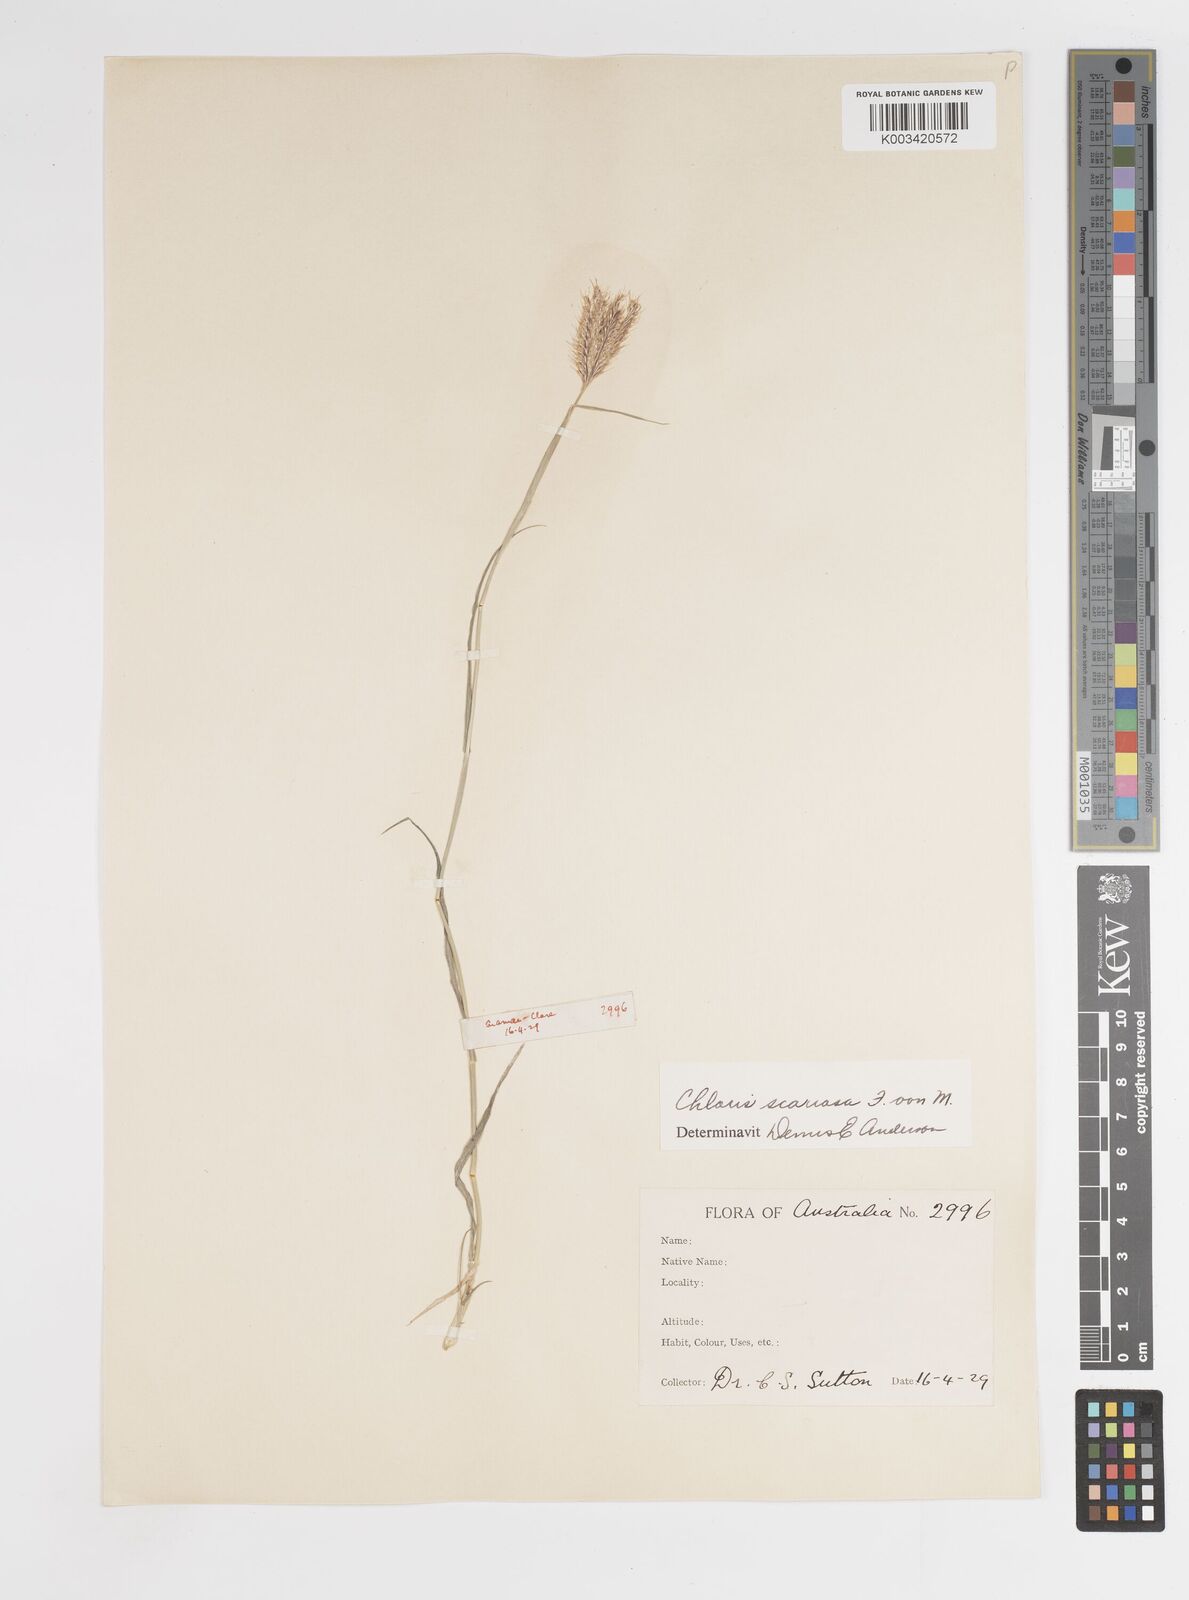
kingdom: Plantae
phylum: Tracheophyta
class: Liliopsida
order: Poales
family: Poaceae
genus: Oxychloris
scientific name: Oxychloris scariosa
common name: Winged windmill grass
